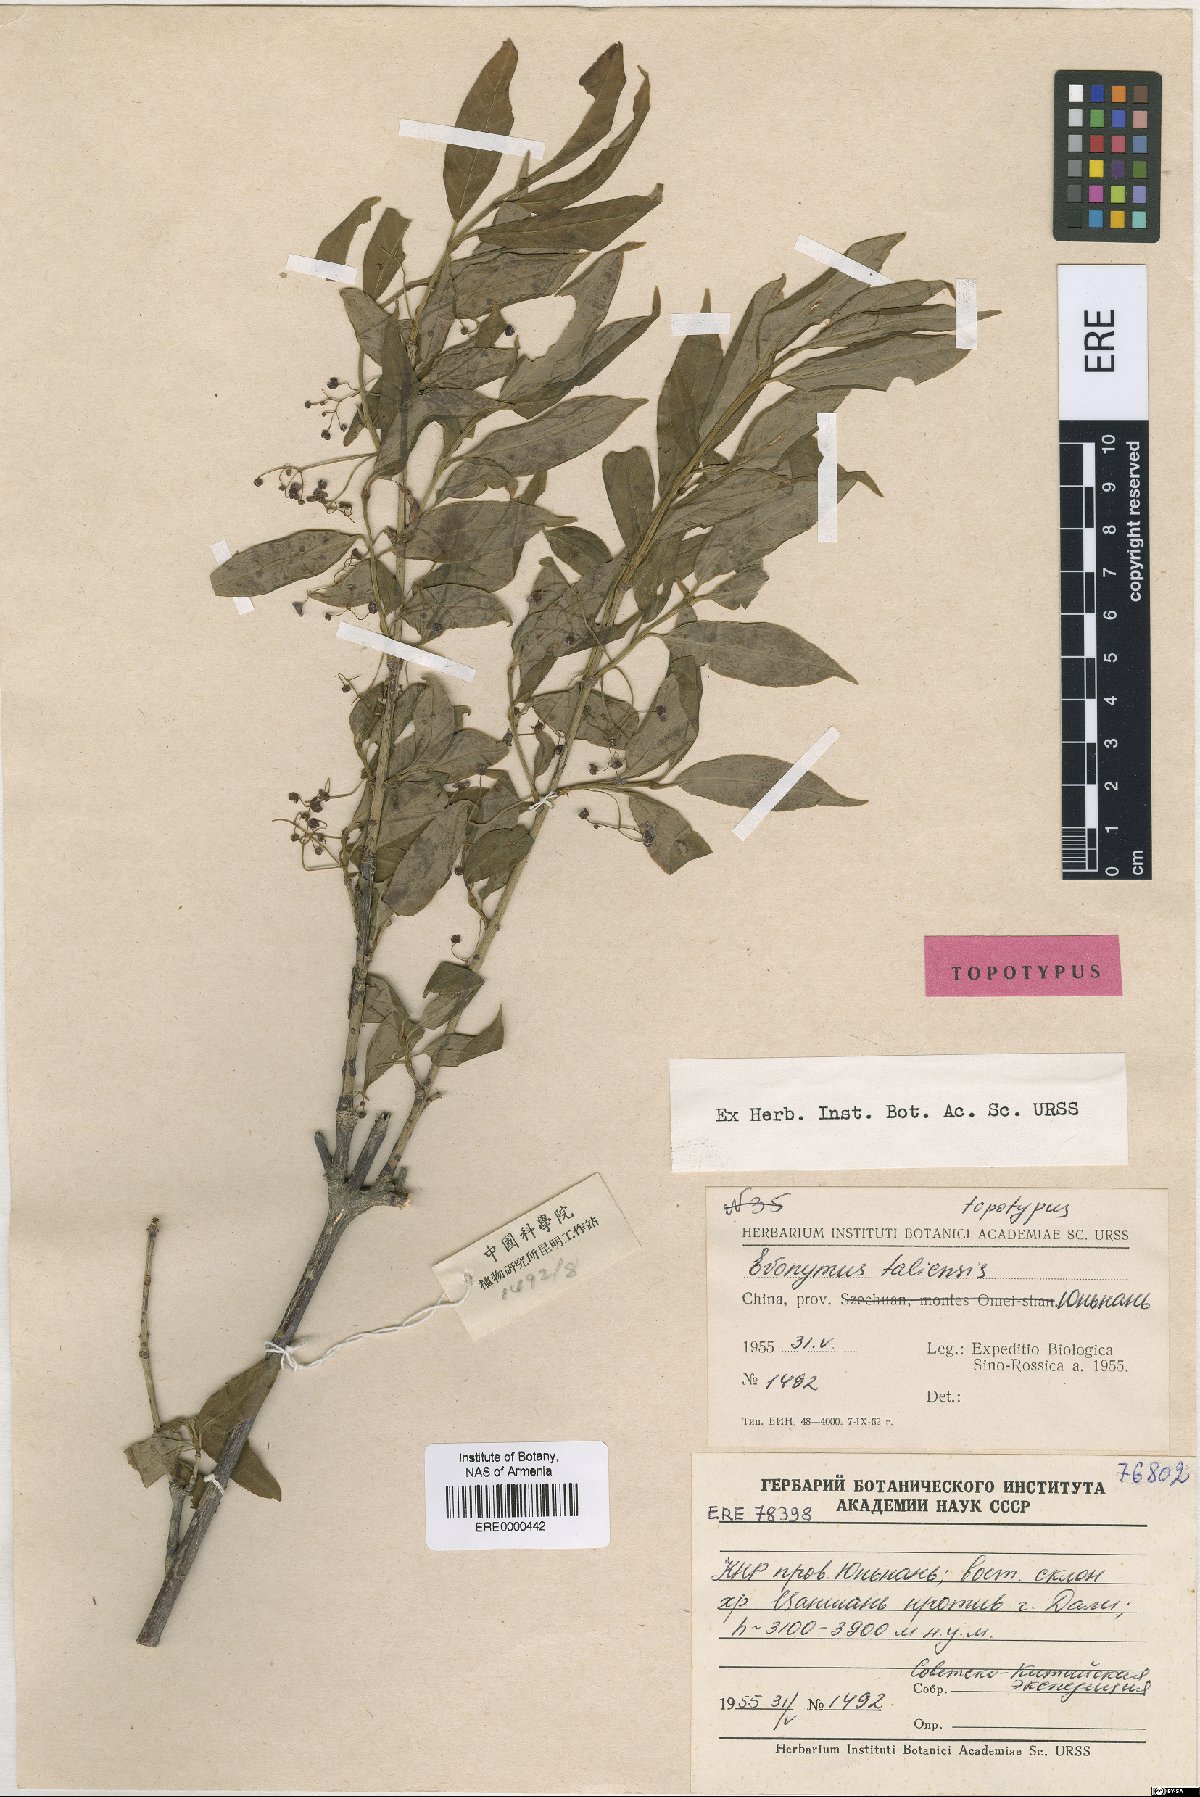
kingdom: Plantae
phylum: Tracheophyta
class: Magnoliopsida
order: Celastrales
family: Celastraceae
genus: Euonymus
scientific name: Euonymus frigidus
